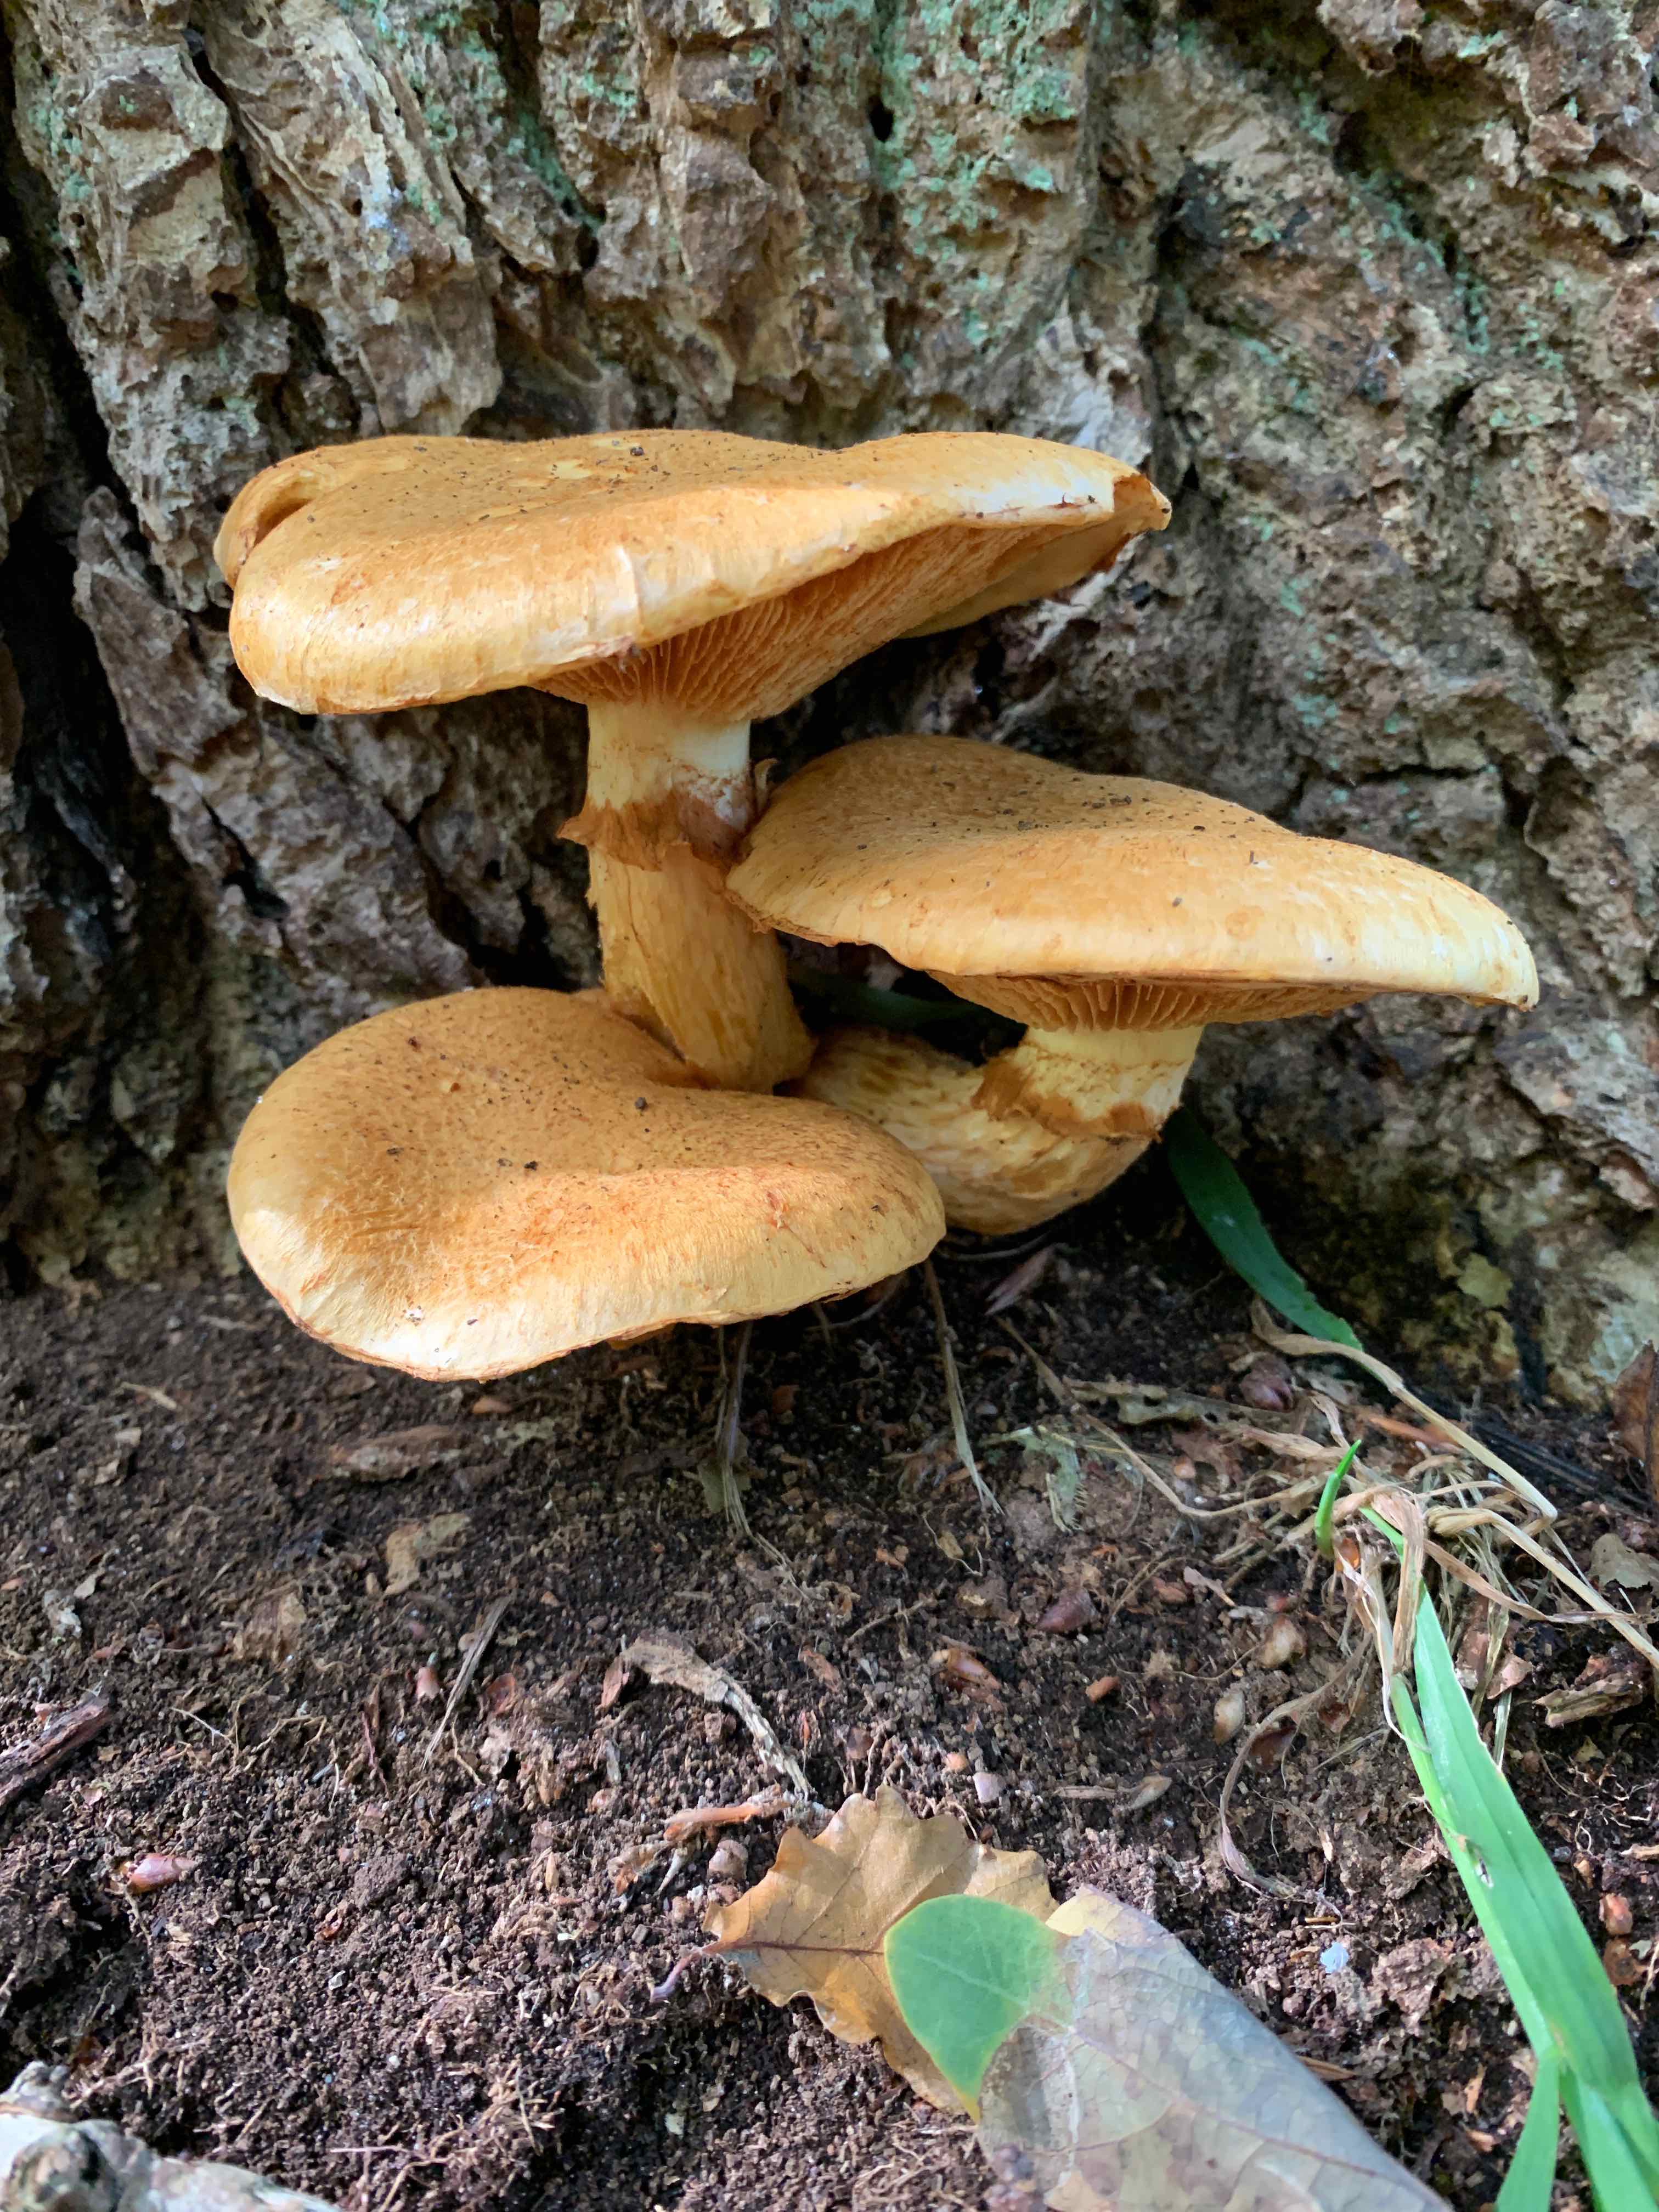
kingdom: Fungi
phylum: Basidiomycota
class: Agaricomycetes
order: Agaricales
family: Hymenogastraceae
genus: Gymnopilus
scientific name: Gymnopilus spectabilis
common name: fibret flammehat
